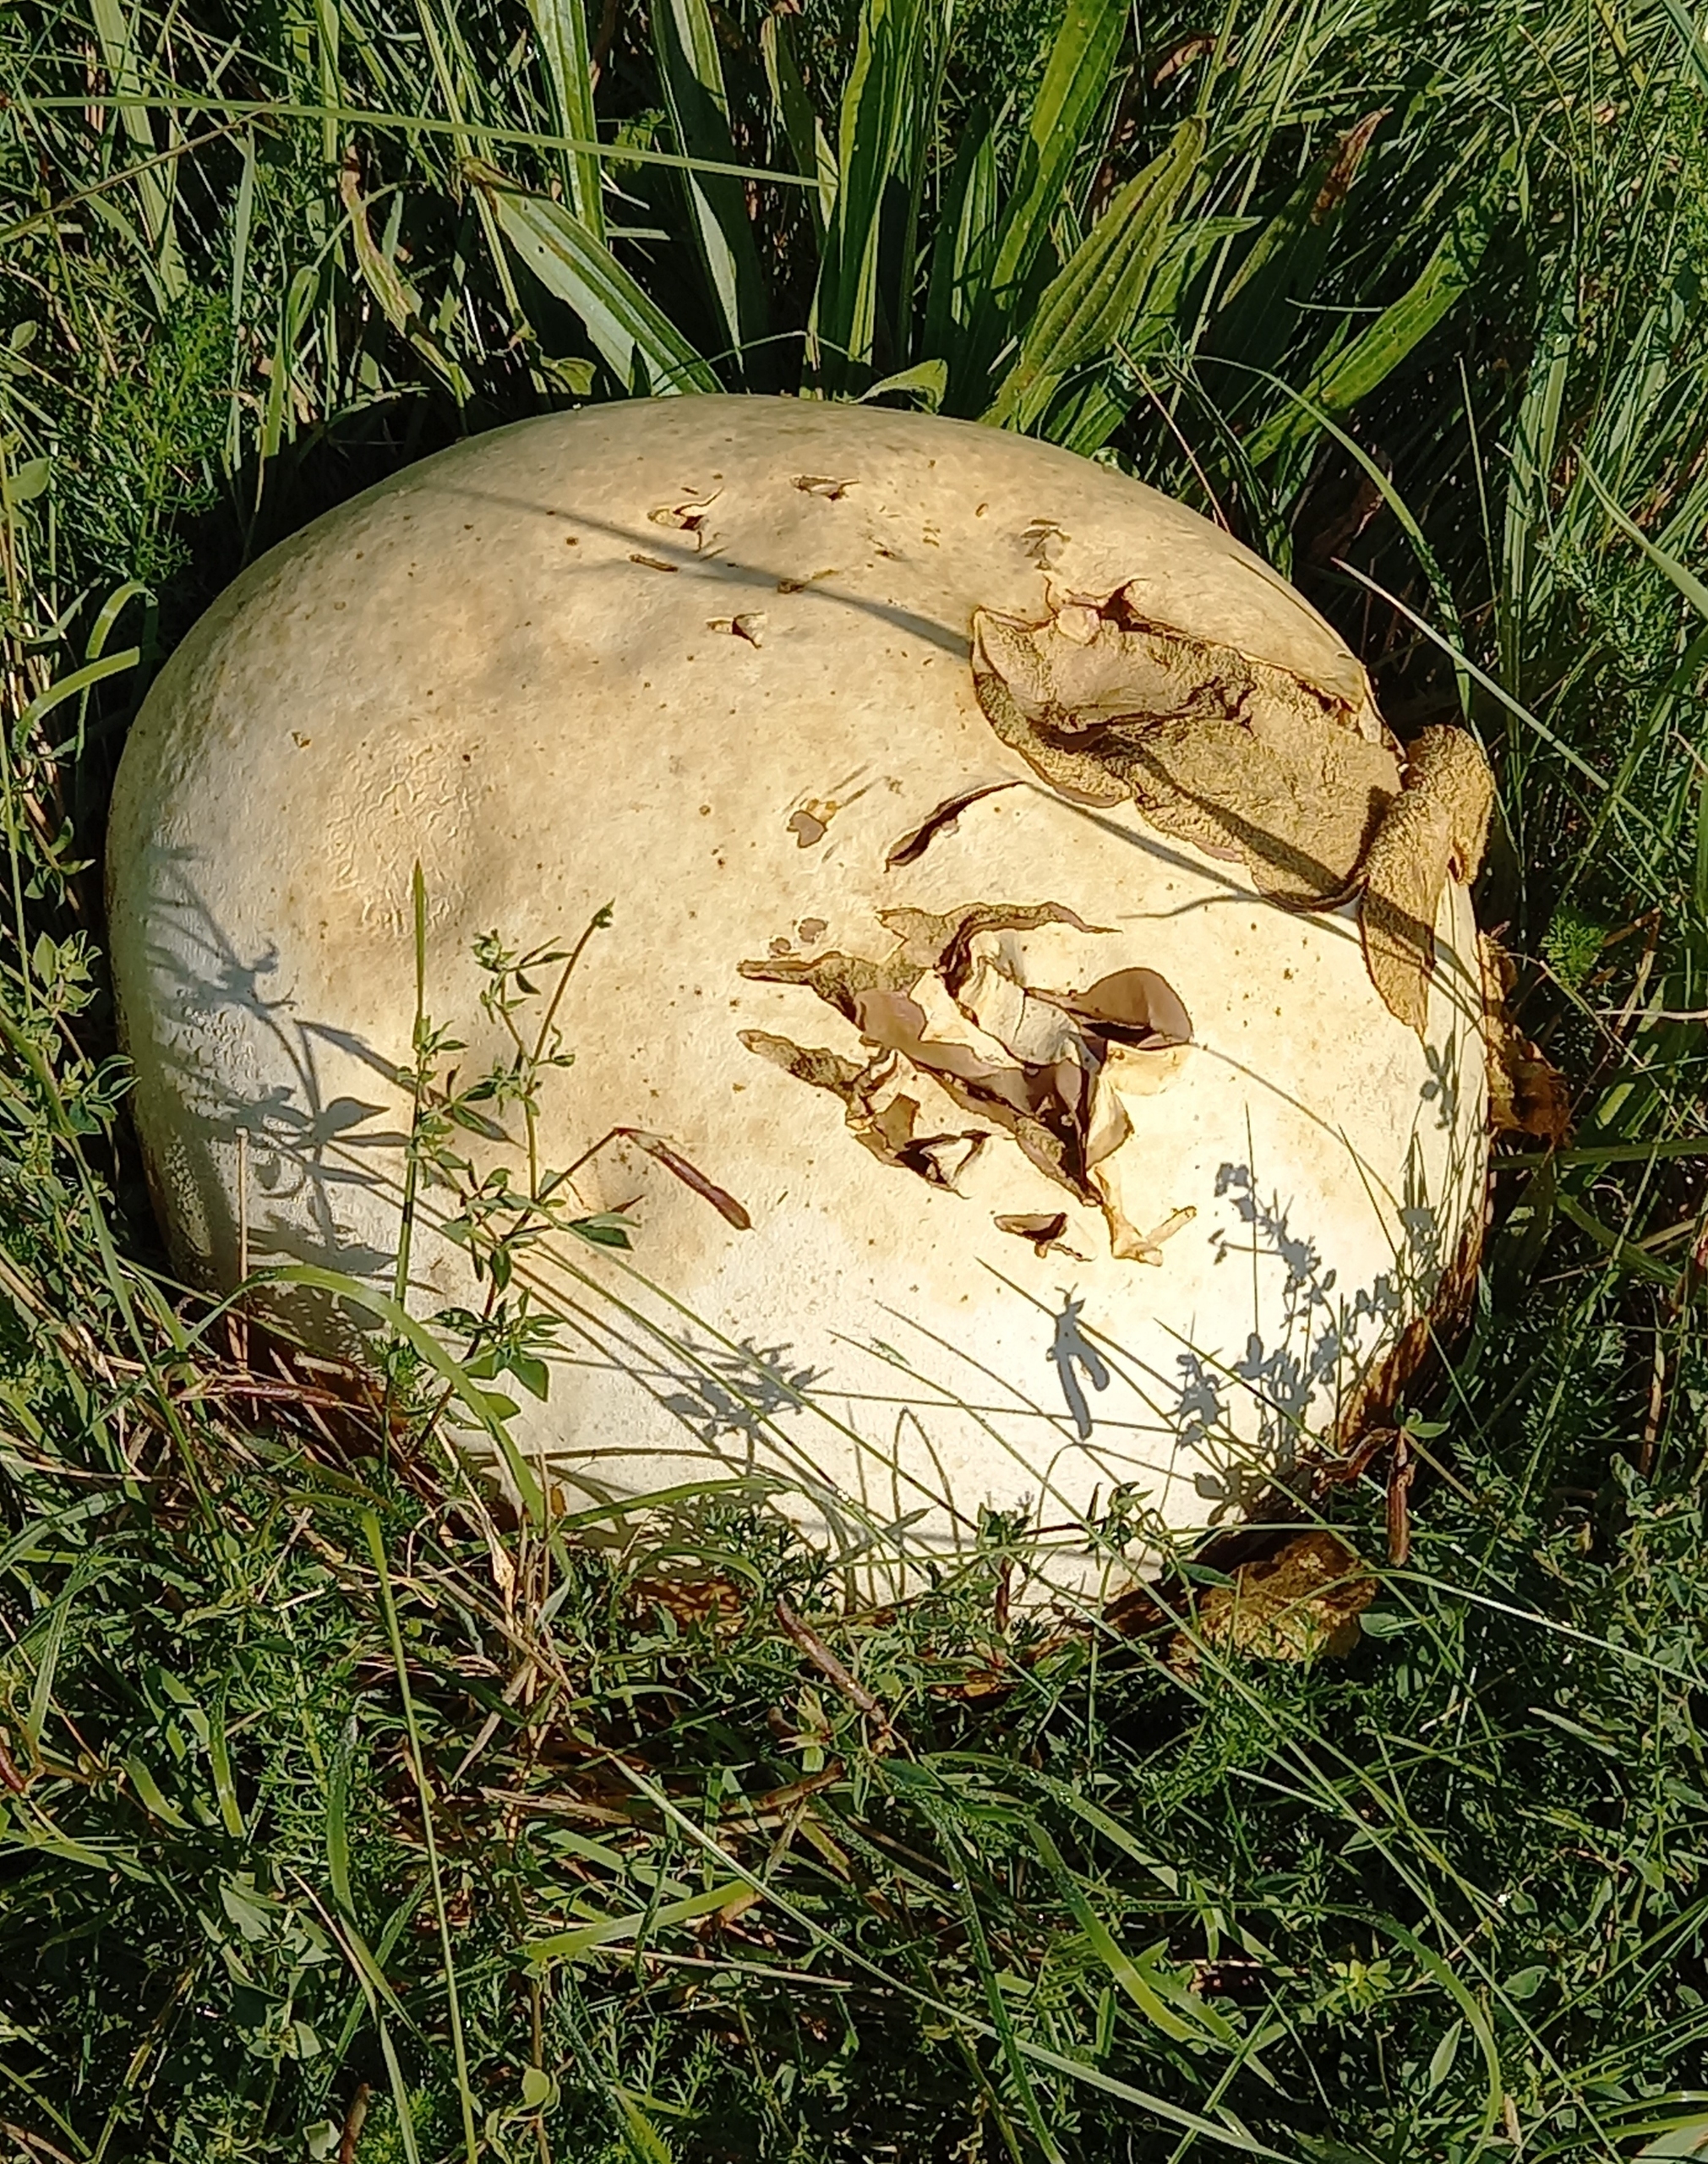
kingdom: Fungi
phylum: Basidiomycota
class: Agaricomycetes
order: Agaricales
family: Lycoperdaceae
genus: Calvatia
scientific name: Calvatia gigantea
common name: Kæmpestøvbold
